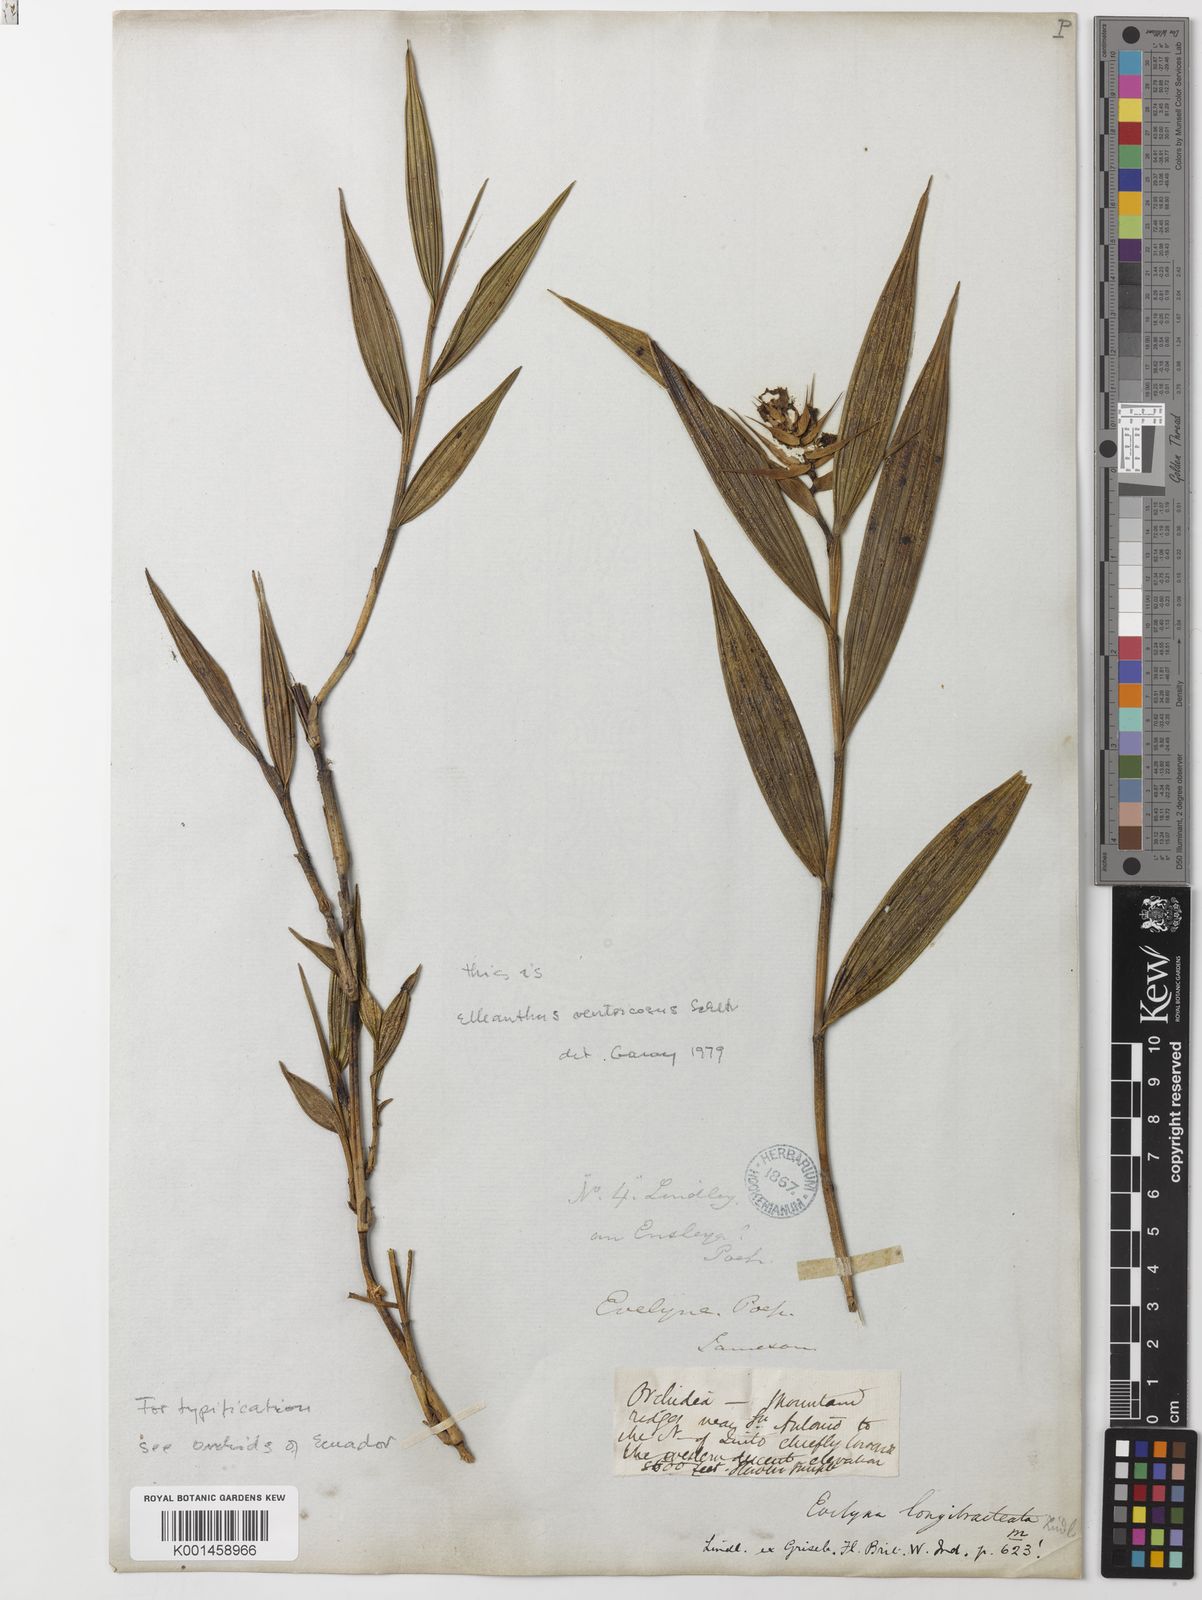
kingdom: Plantae
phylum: Tracheophyta
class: Liliopsida
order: Asparagales
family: Orchidaceae
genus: Elleanthus
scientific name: Elleanthus ventricosus
